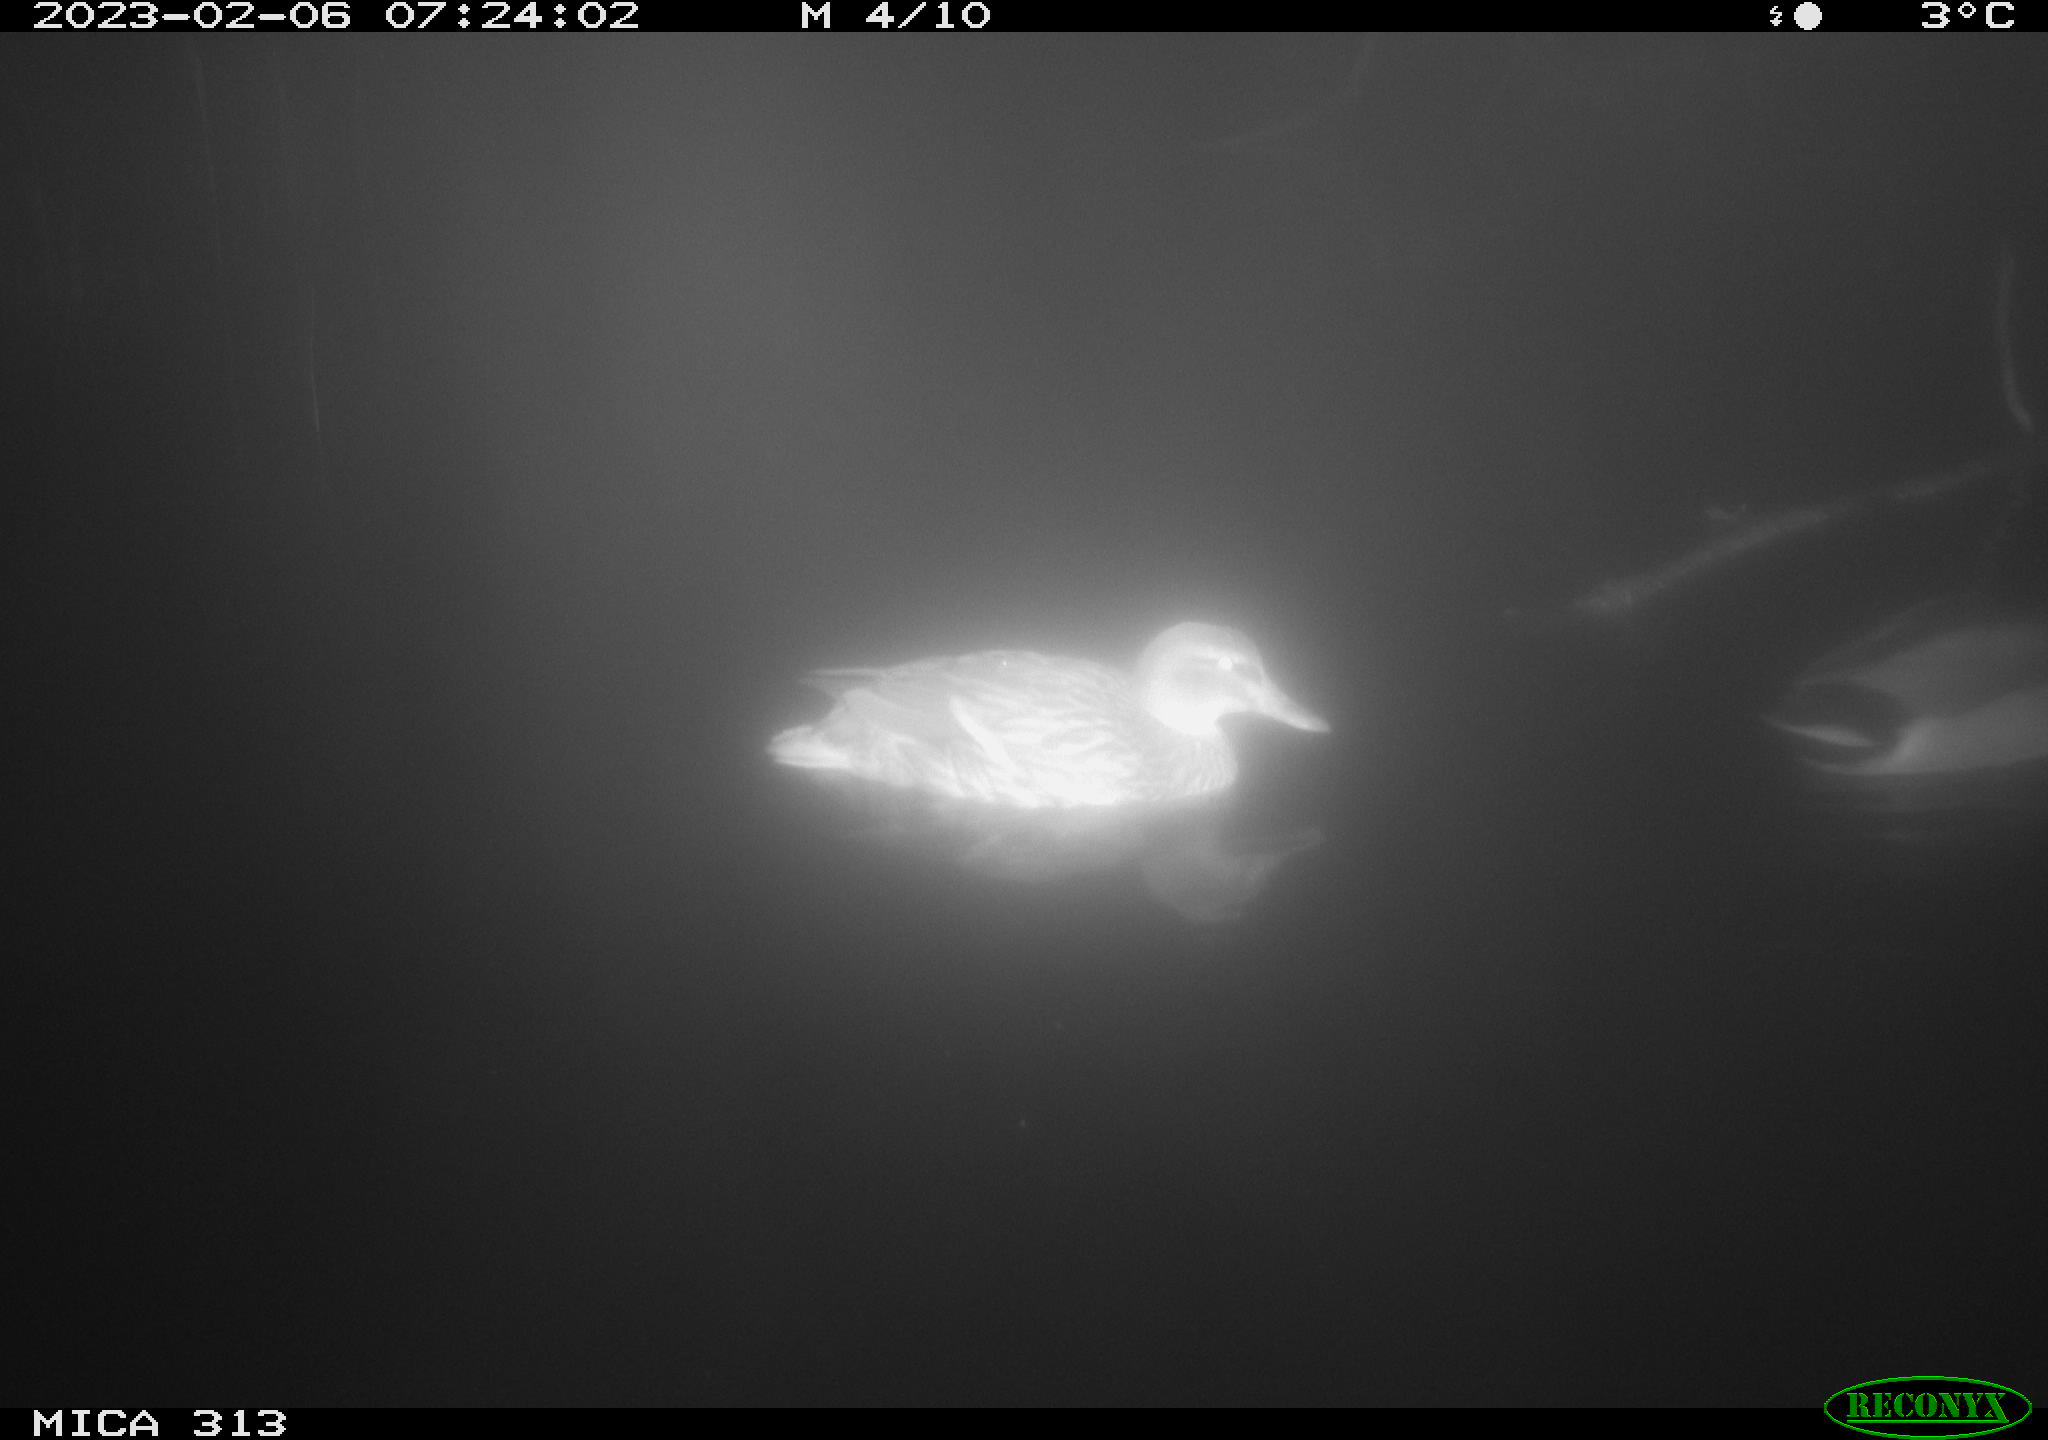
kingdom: Animalia
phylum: Chordata
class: Aves
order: Anseriformes
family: Anatidae
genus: Anas
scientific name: Anas
